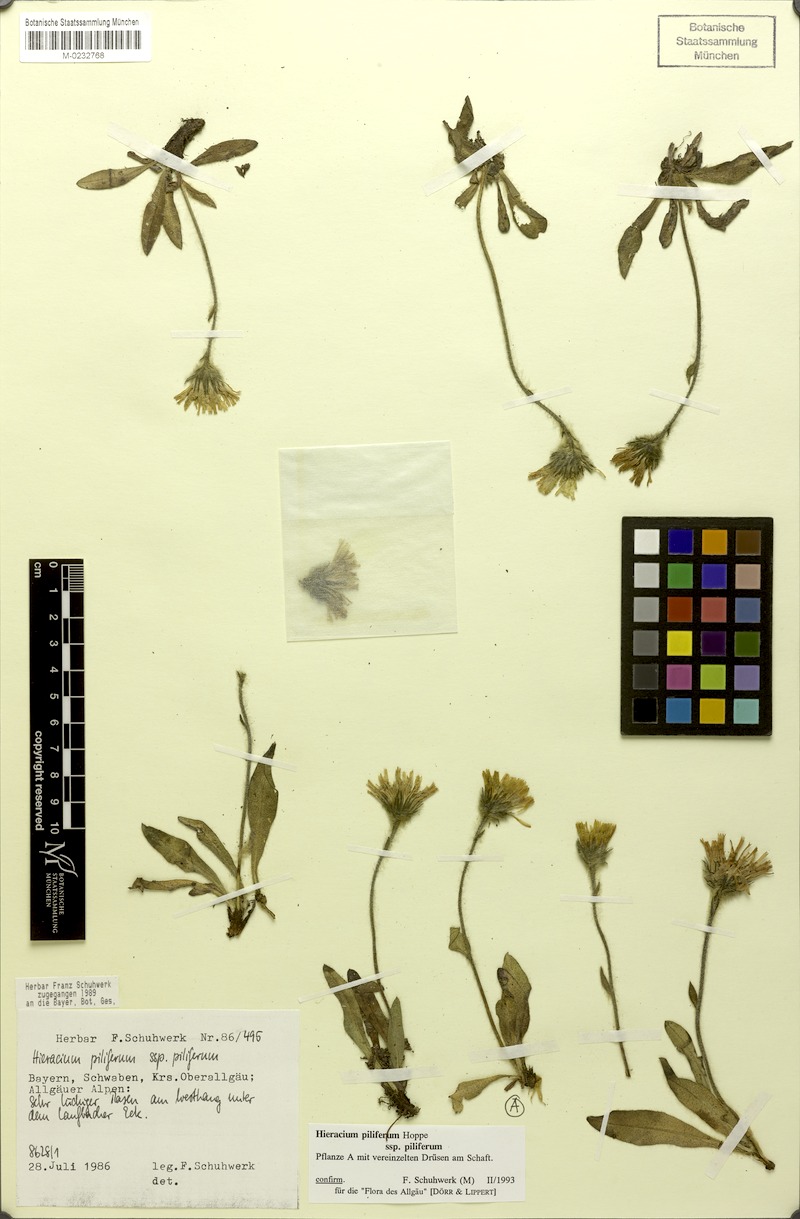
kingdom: Plantae
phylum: Tracheophyta
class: Magnoliopsida
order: Asterales
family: Asteraceae
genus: Hieracium
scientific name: Hieracium piliferum
